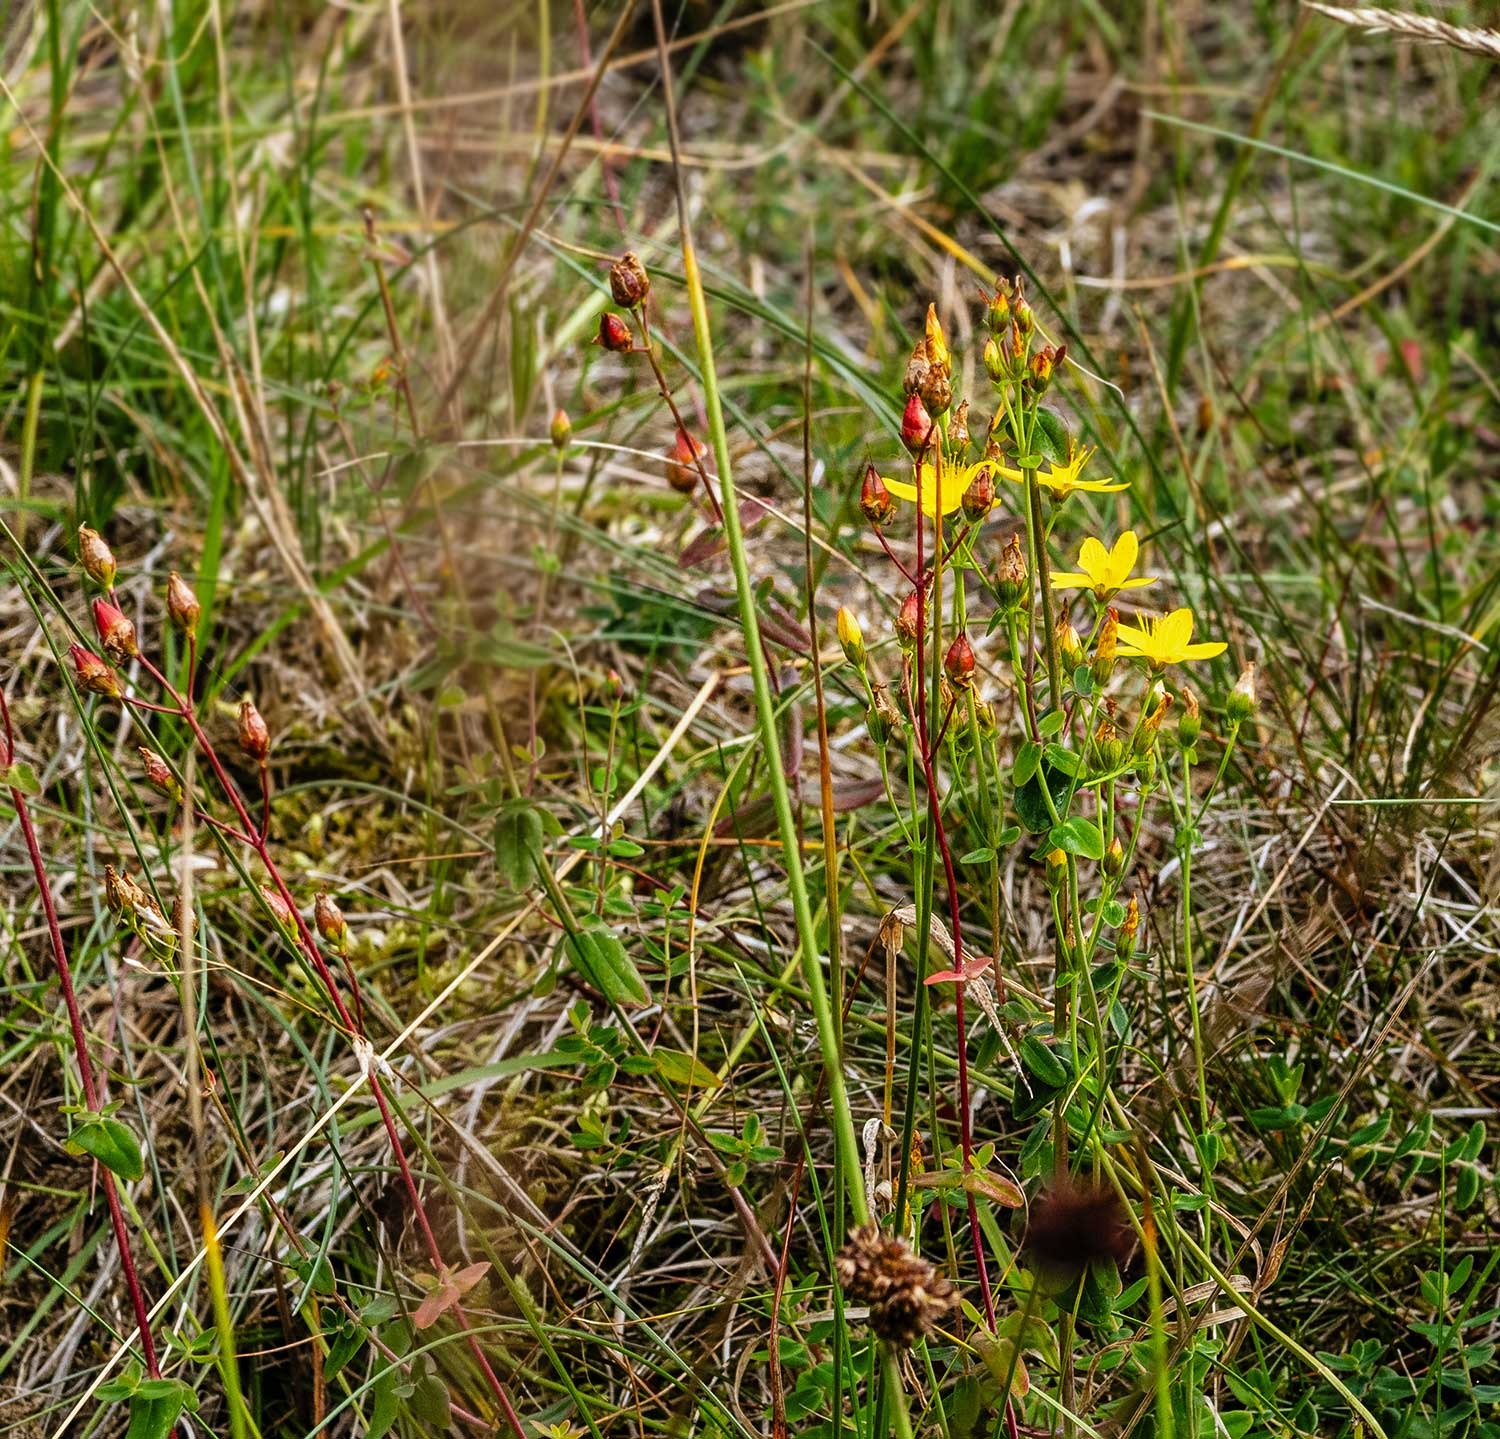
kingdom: Plantae
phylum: Tracheophyta
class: Magnoliopsida
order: Malpighiales
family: Hypericaceae
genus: Hypericum
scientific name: Hypericum pulchrum
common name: Smuk perikon
